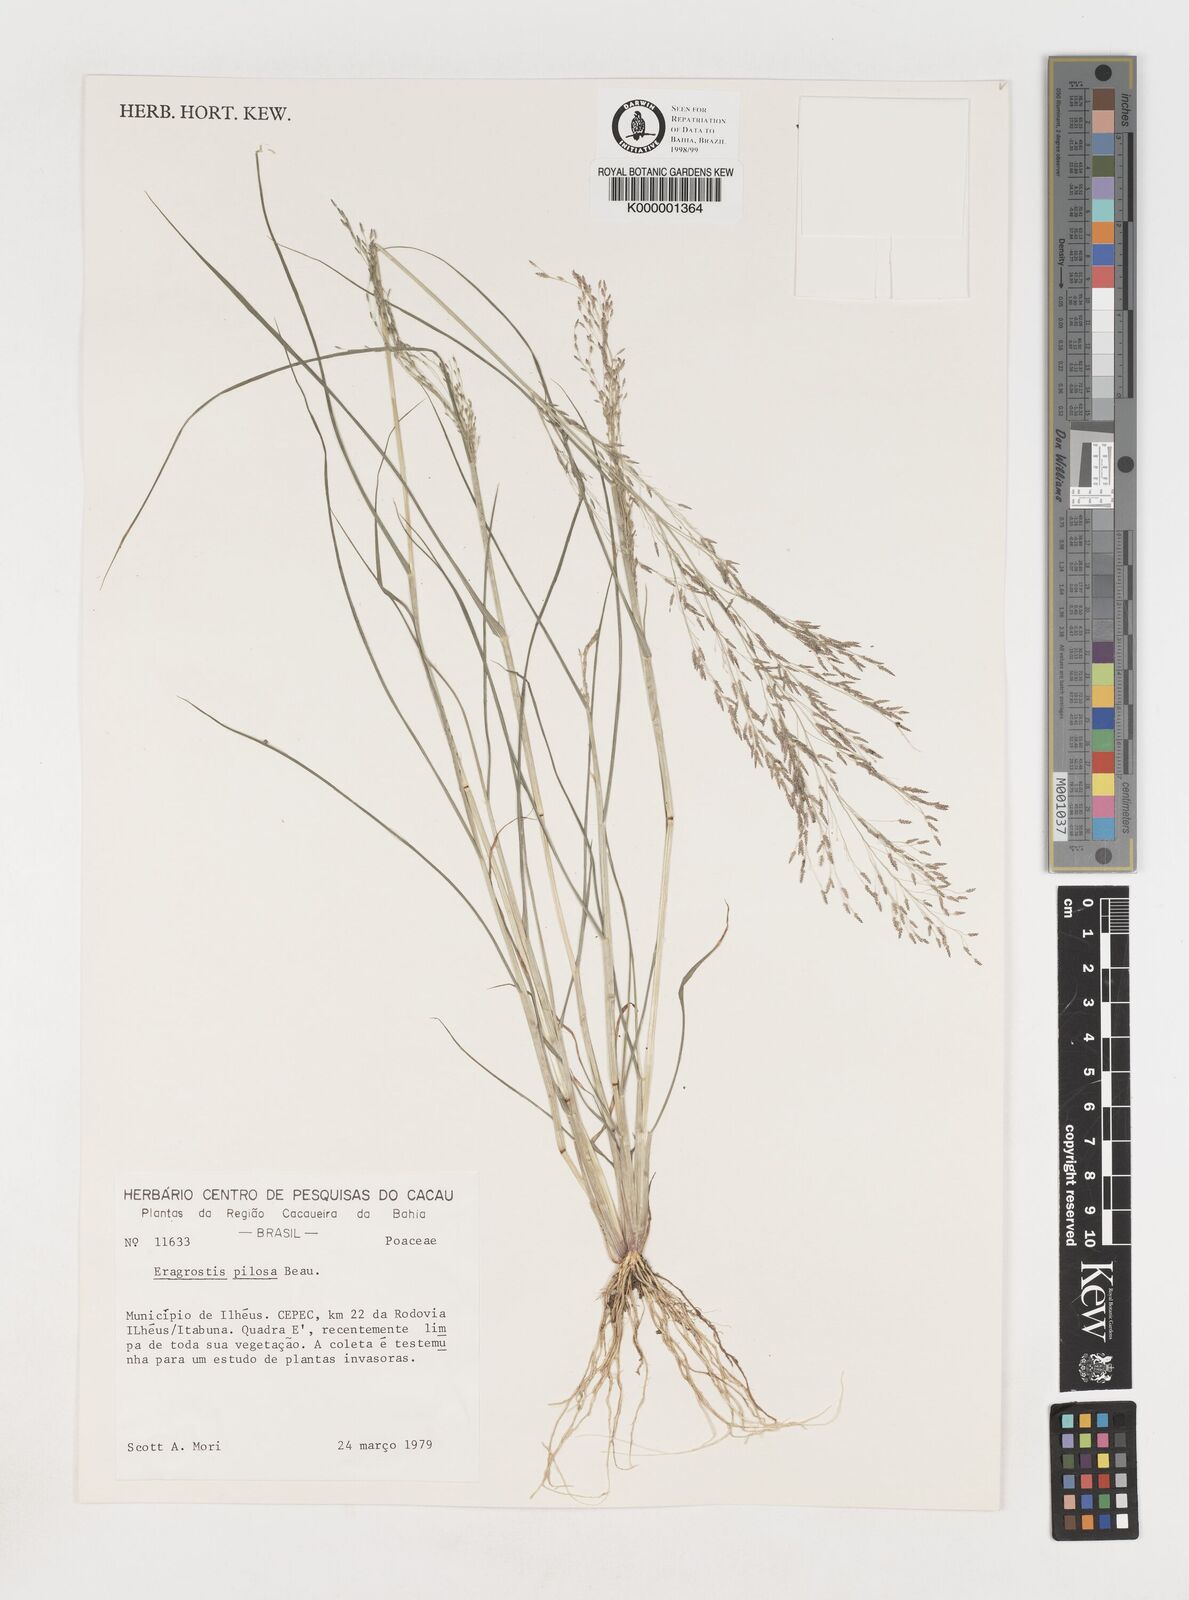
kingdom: Plantae
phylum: Tracheophyta
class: Liliopsida
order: Poales
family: Poaceae
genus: Eragrostis
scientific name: Eragrostis pilosa
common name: Indian lovegrass
